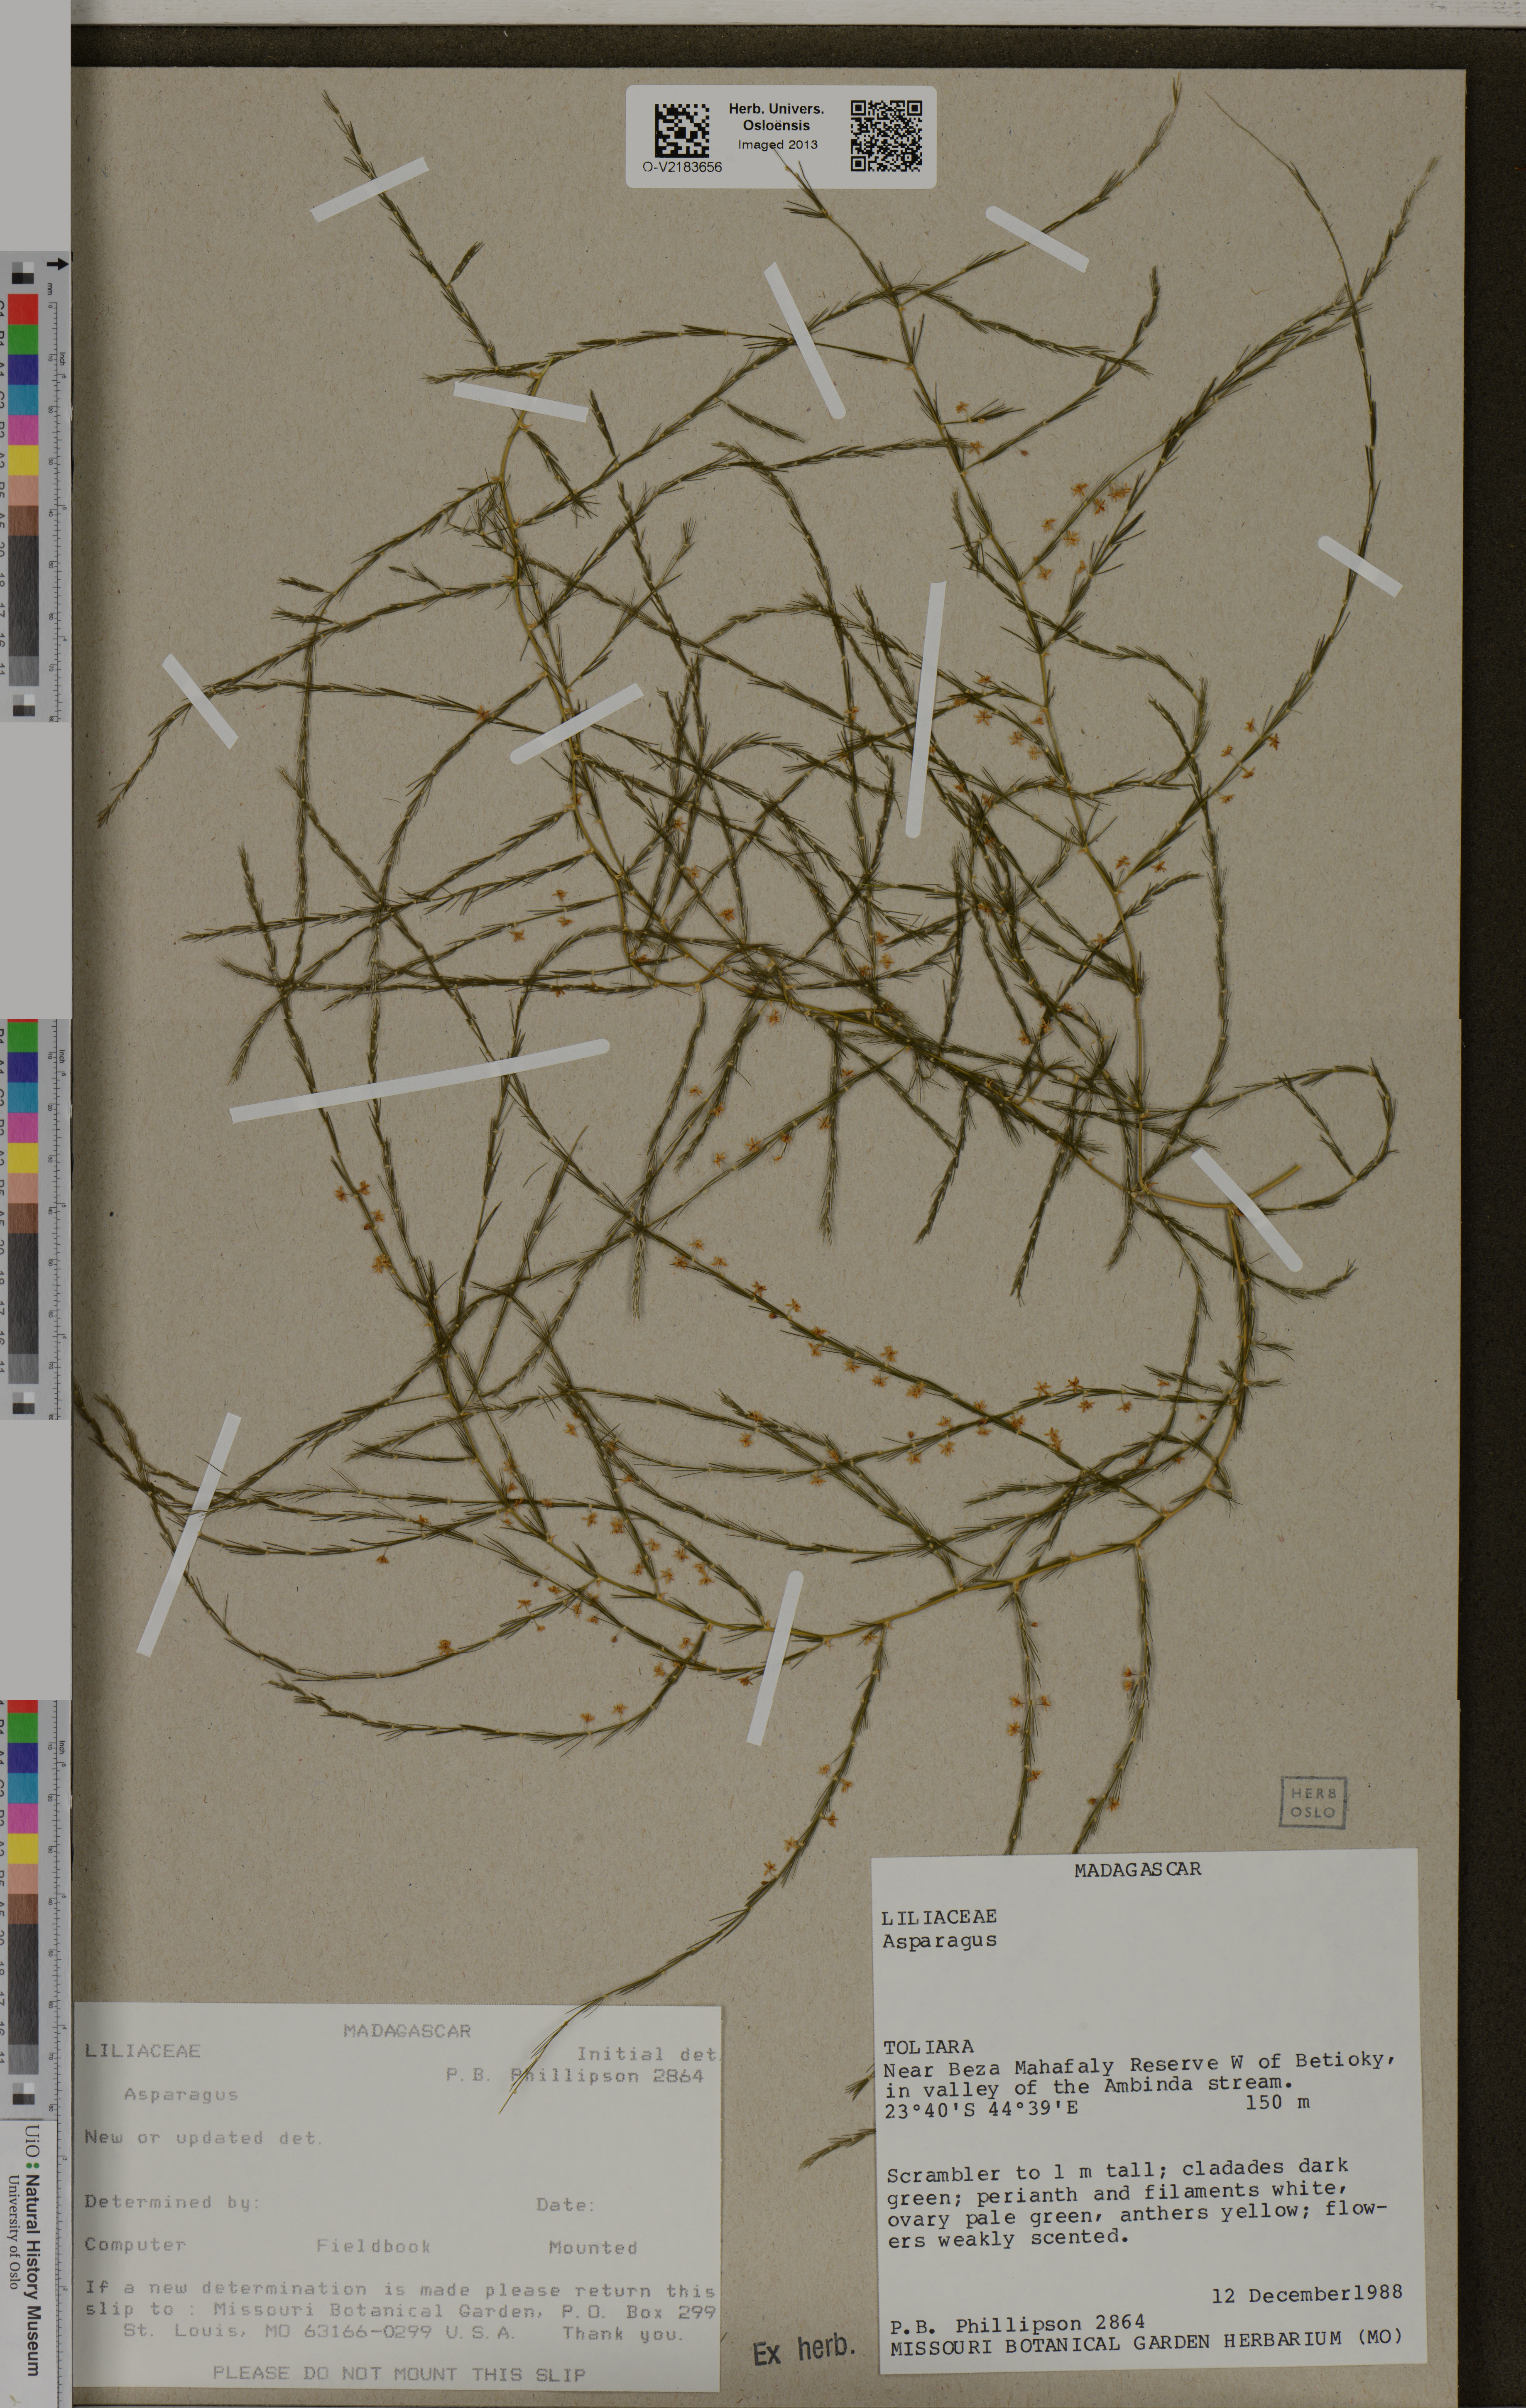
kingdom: Plantae
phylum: Tracheophyta
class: Liliopsida
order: Asparagales
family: Asparagaceae
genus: Asparagus
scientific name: Asparagus
